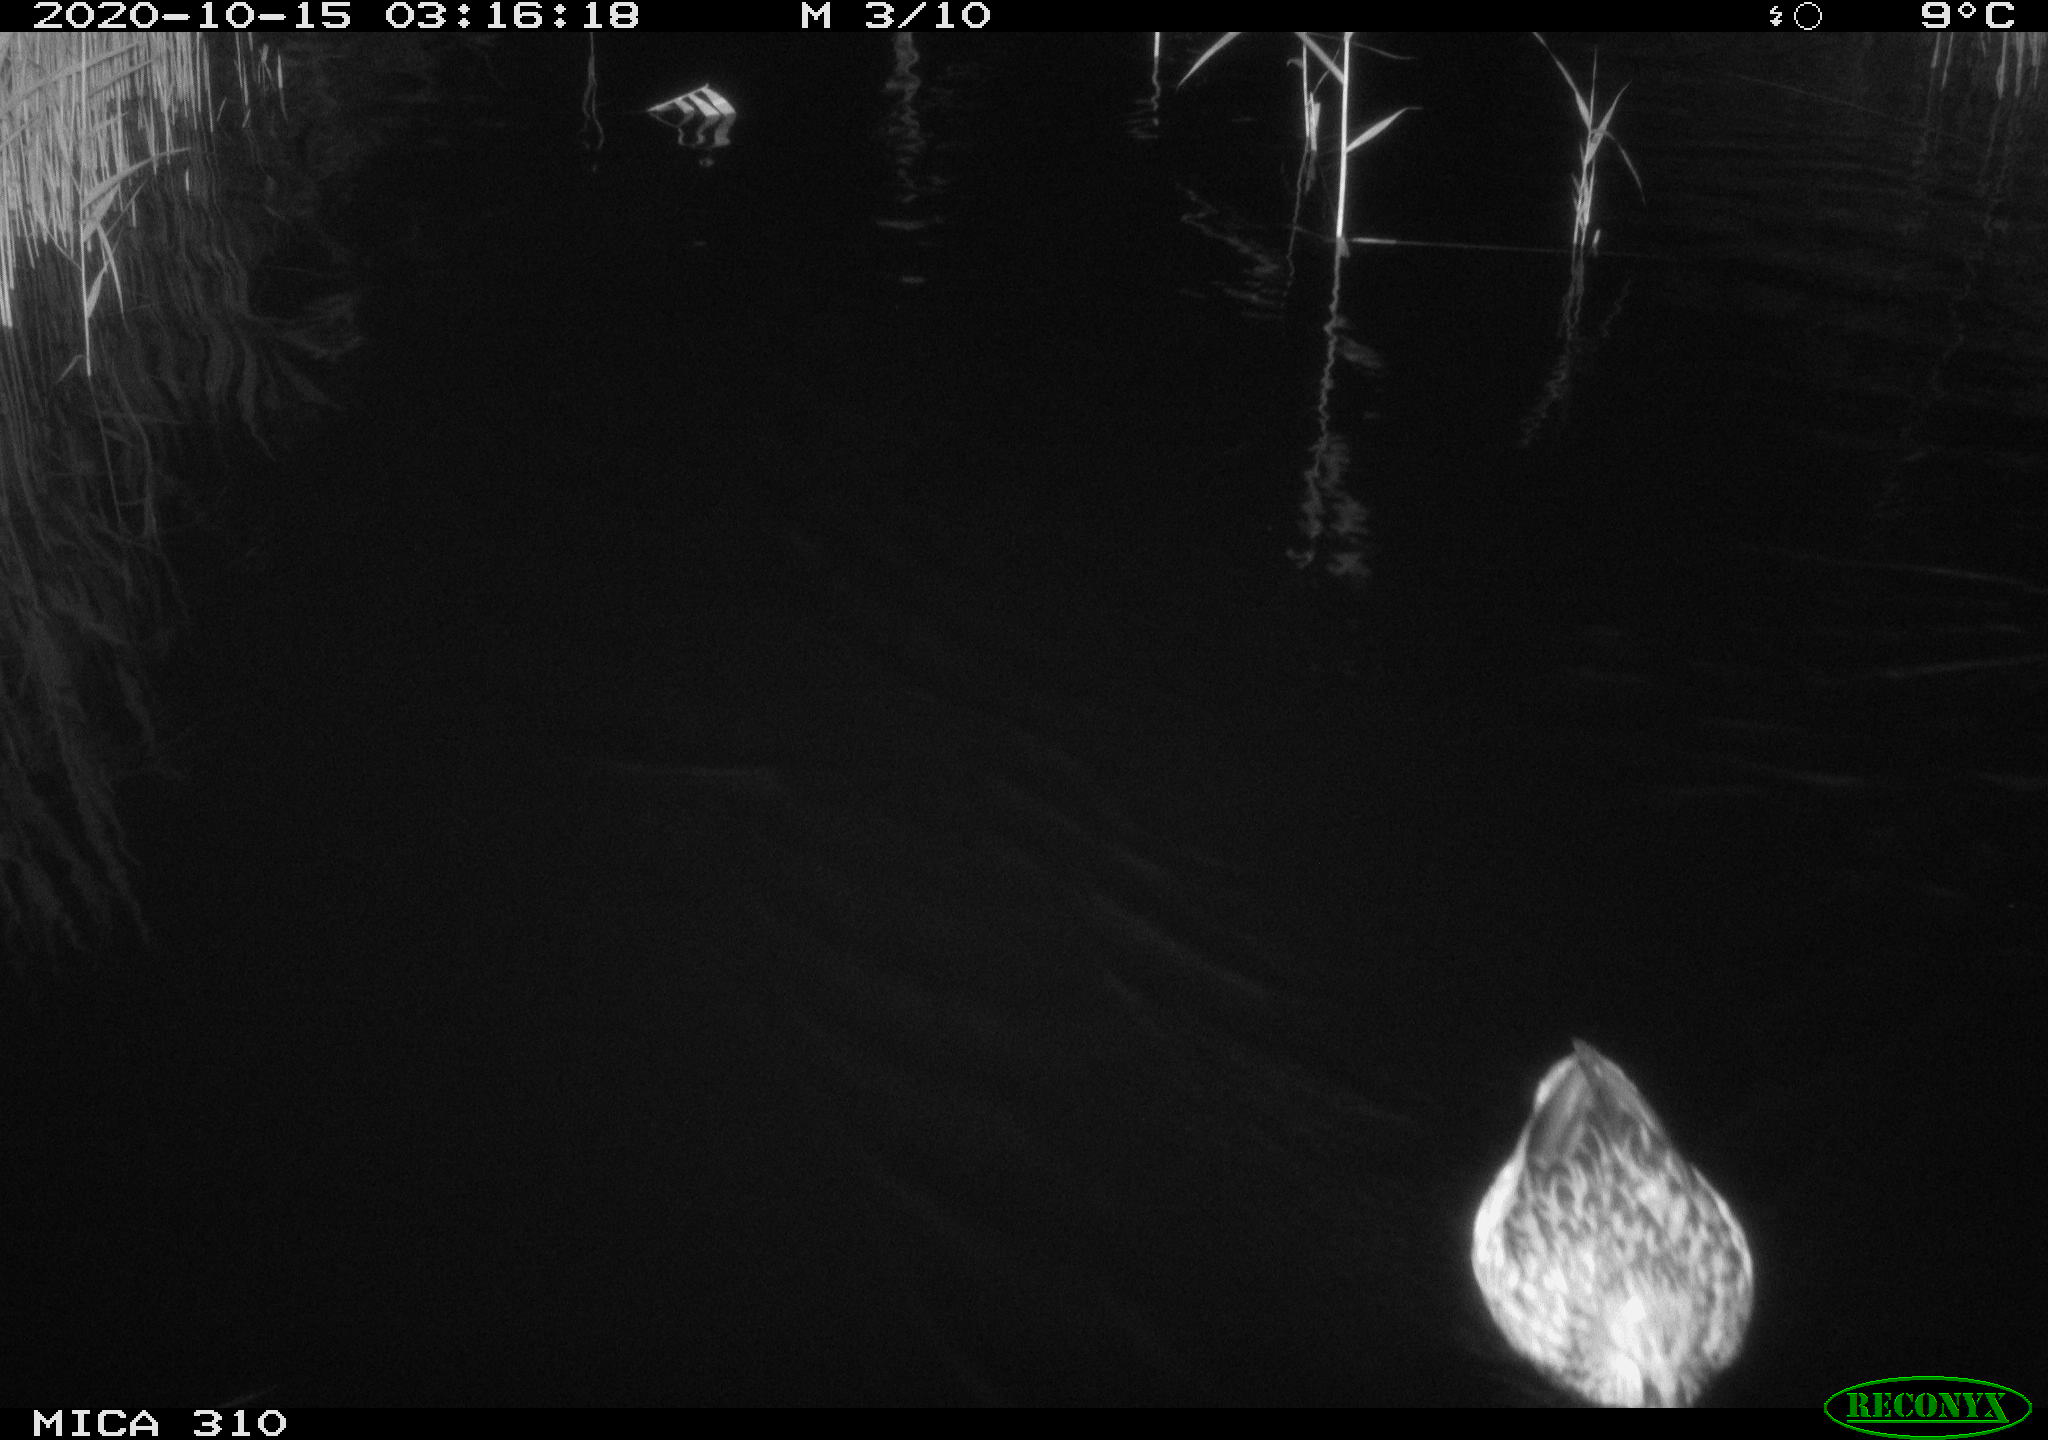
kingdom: Animalia
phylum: Chordata
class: Aves
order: Anseriformes
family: Anatidae
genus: Anas
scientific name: Anas platyrhynchos
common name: Mallard
